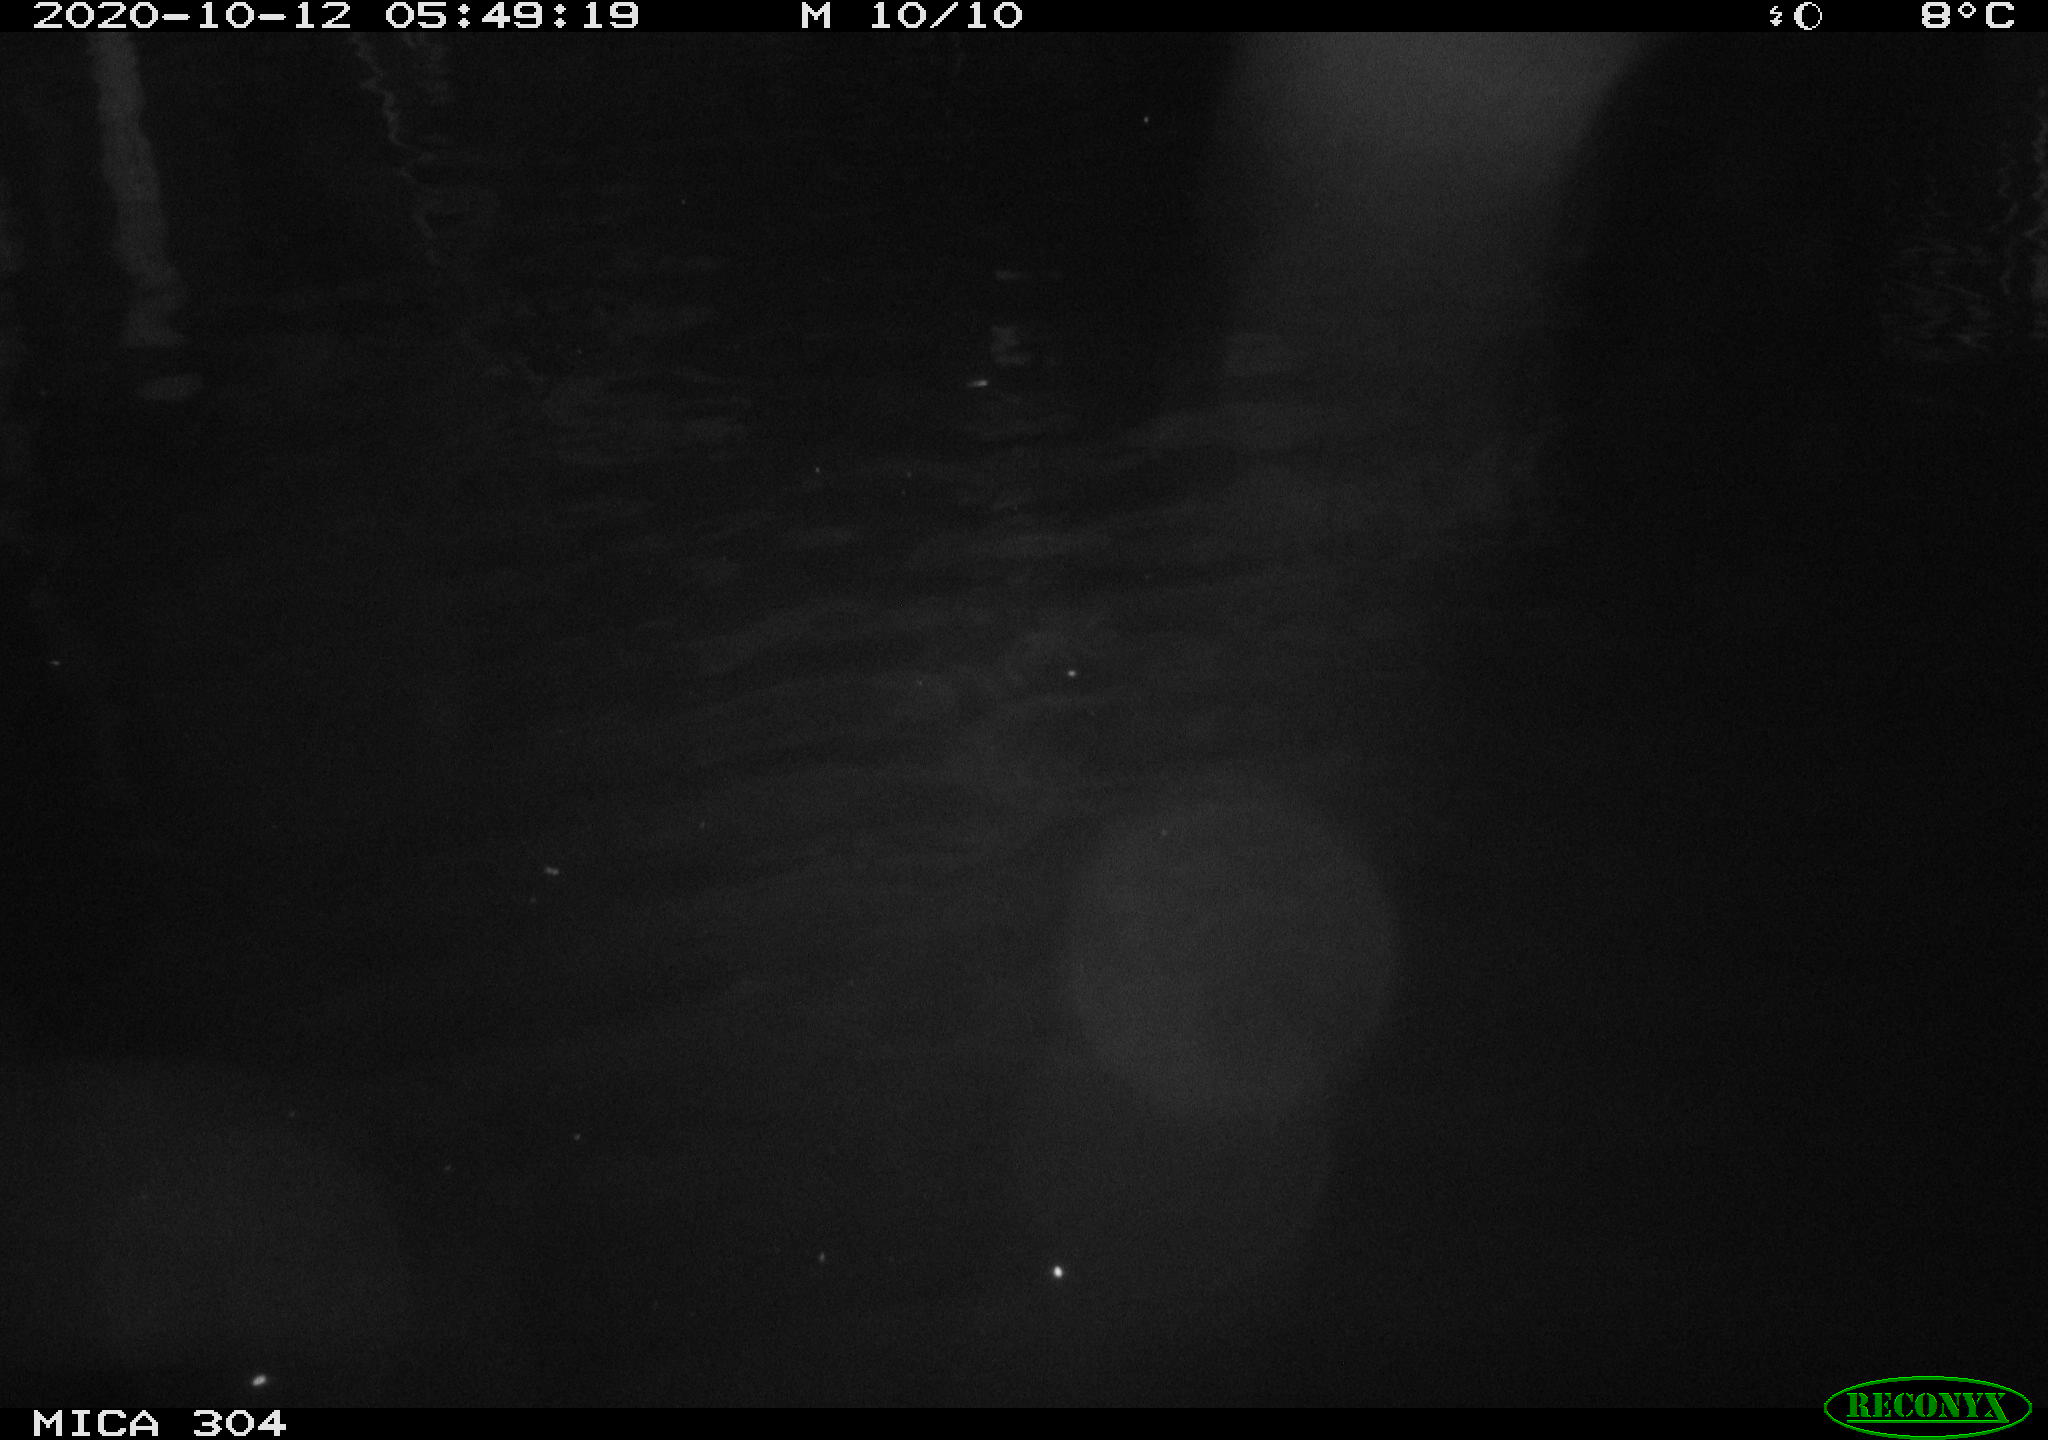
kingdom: Animalia
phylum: Chordata
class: Mammalia
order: Rodentia
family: Cricetidae
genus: Ondatra
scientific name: Ondatra zibethicus
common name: Muskrat
